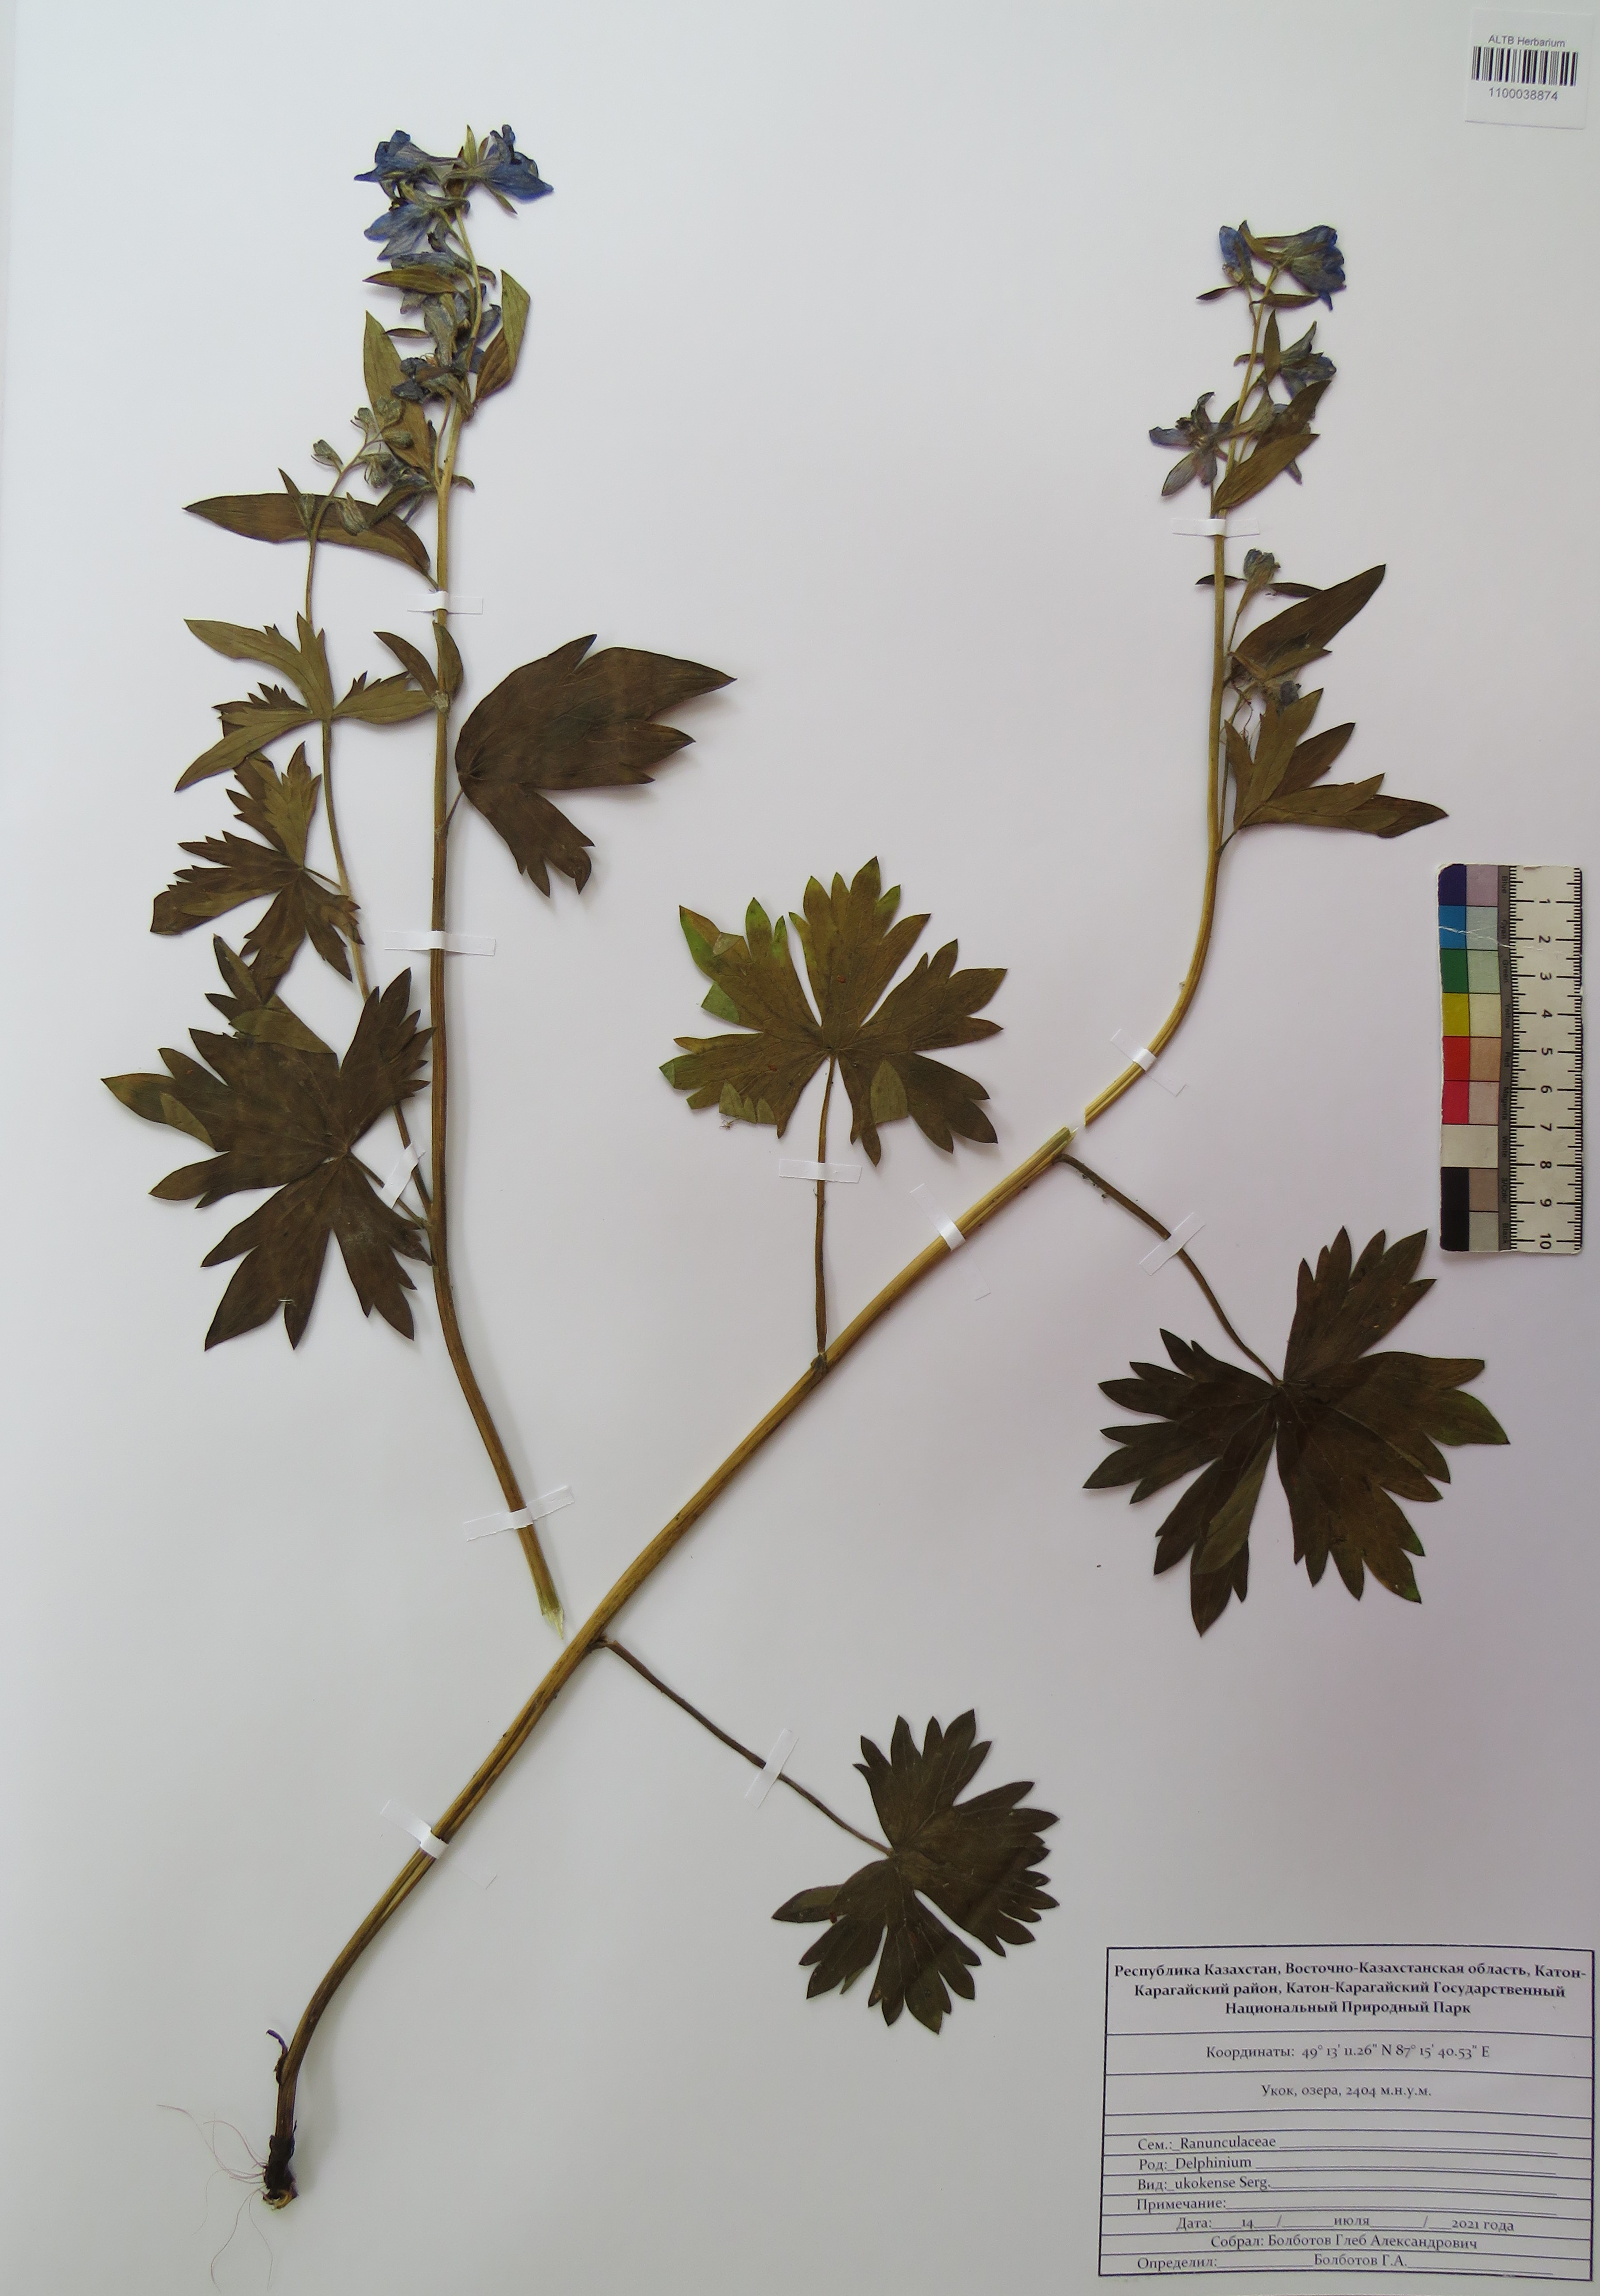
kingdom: Plantae
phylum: Tracheophyta
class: Magnoliopsida
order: Ranunculales
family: Ranunculaceae
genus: Delphinium
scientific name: Delphinium ukokense
